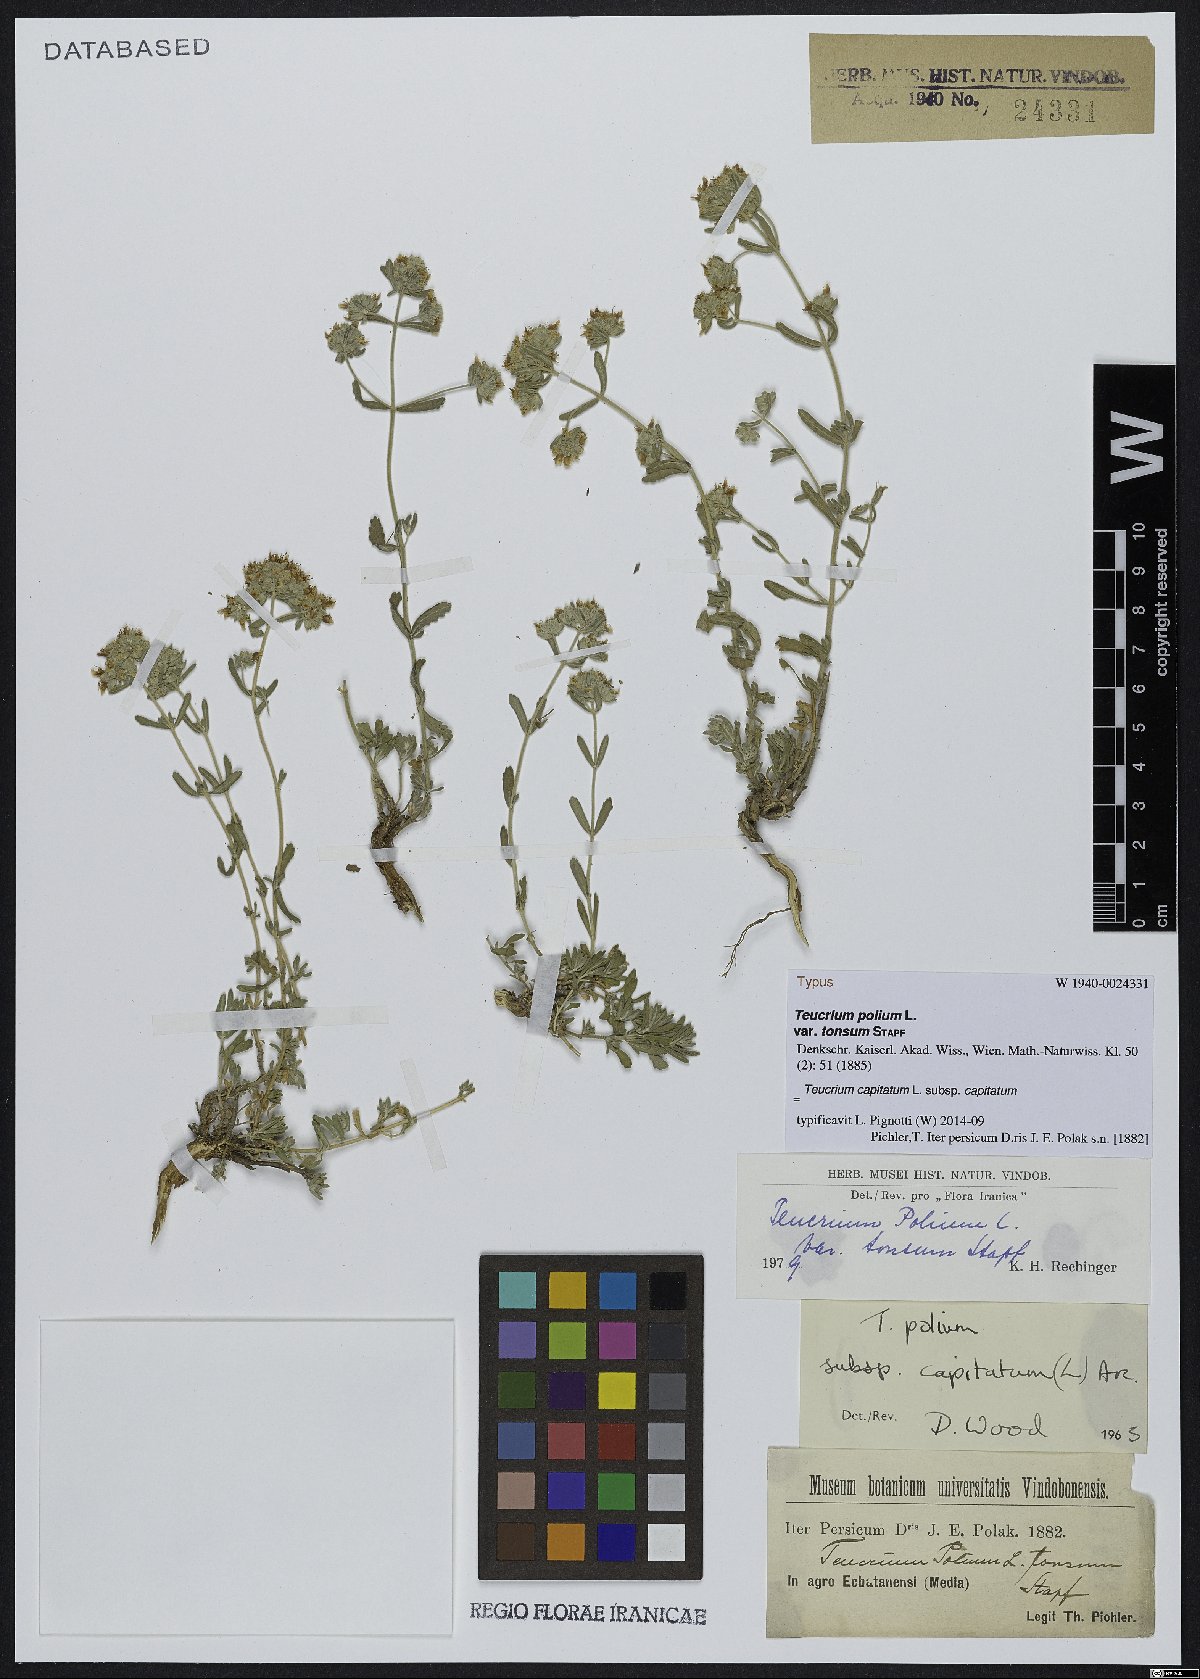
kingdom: Plantae
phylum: Tracheophyta
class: Magnoliopsida
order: Lamiales
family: Lamiaceae
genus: Teucrium
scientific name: Teucrium capitatum
